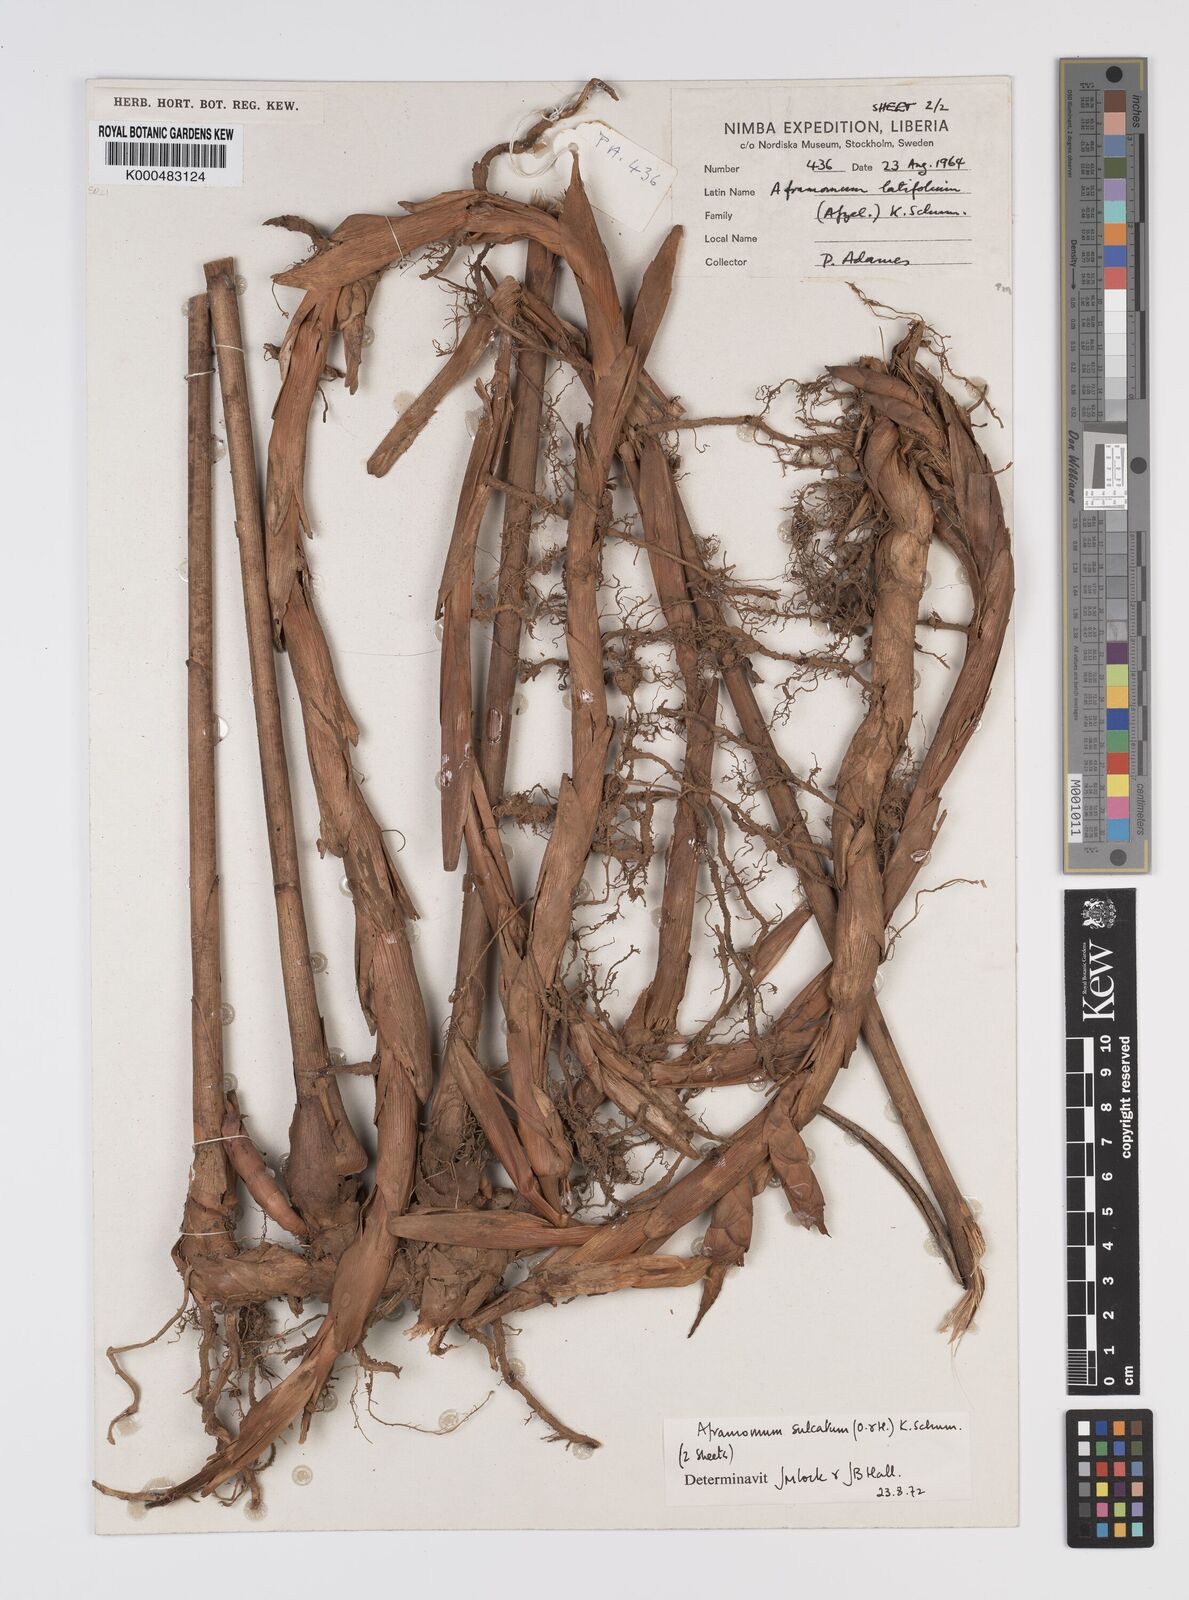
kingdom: Plantae
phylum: Tracheophyta
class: Liliopsida
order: Zingiberales
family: Zingiberaceae
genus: Aframomum
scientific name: Aframomum sulcatum
